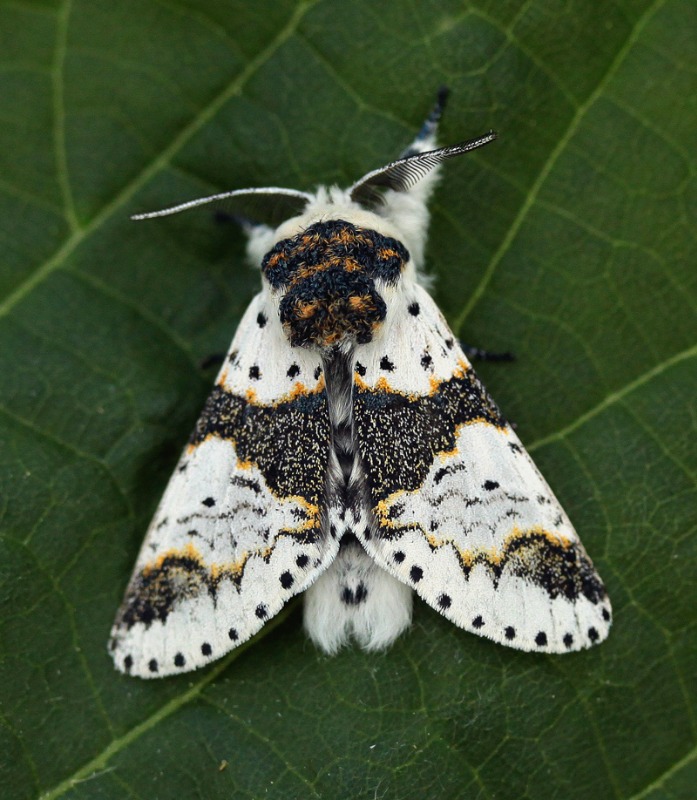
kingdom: Animalia
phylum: Arthropoda
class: Insecta
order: Lepidoptera
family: Notodontidae
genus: Furcula
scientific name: Furcula bicuspis
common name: Birkegaffelhale
